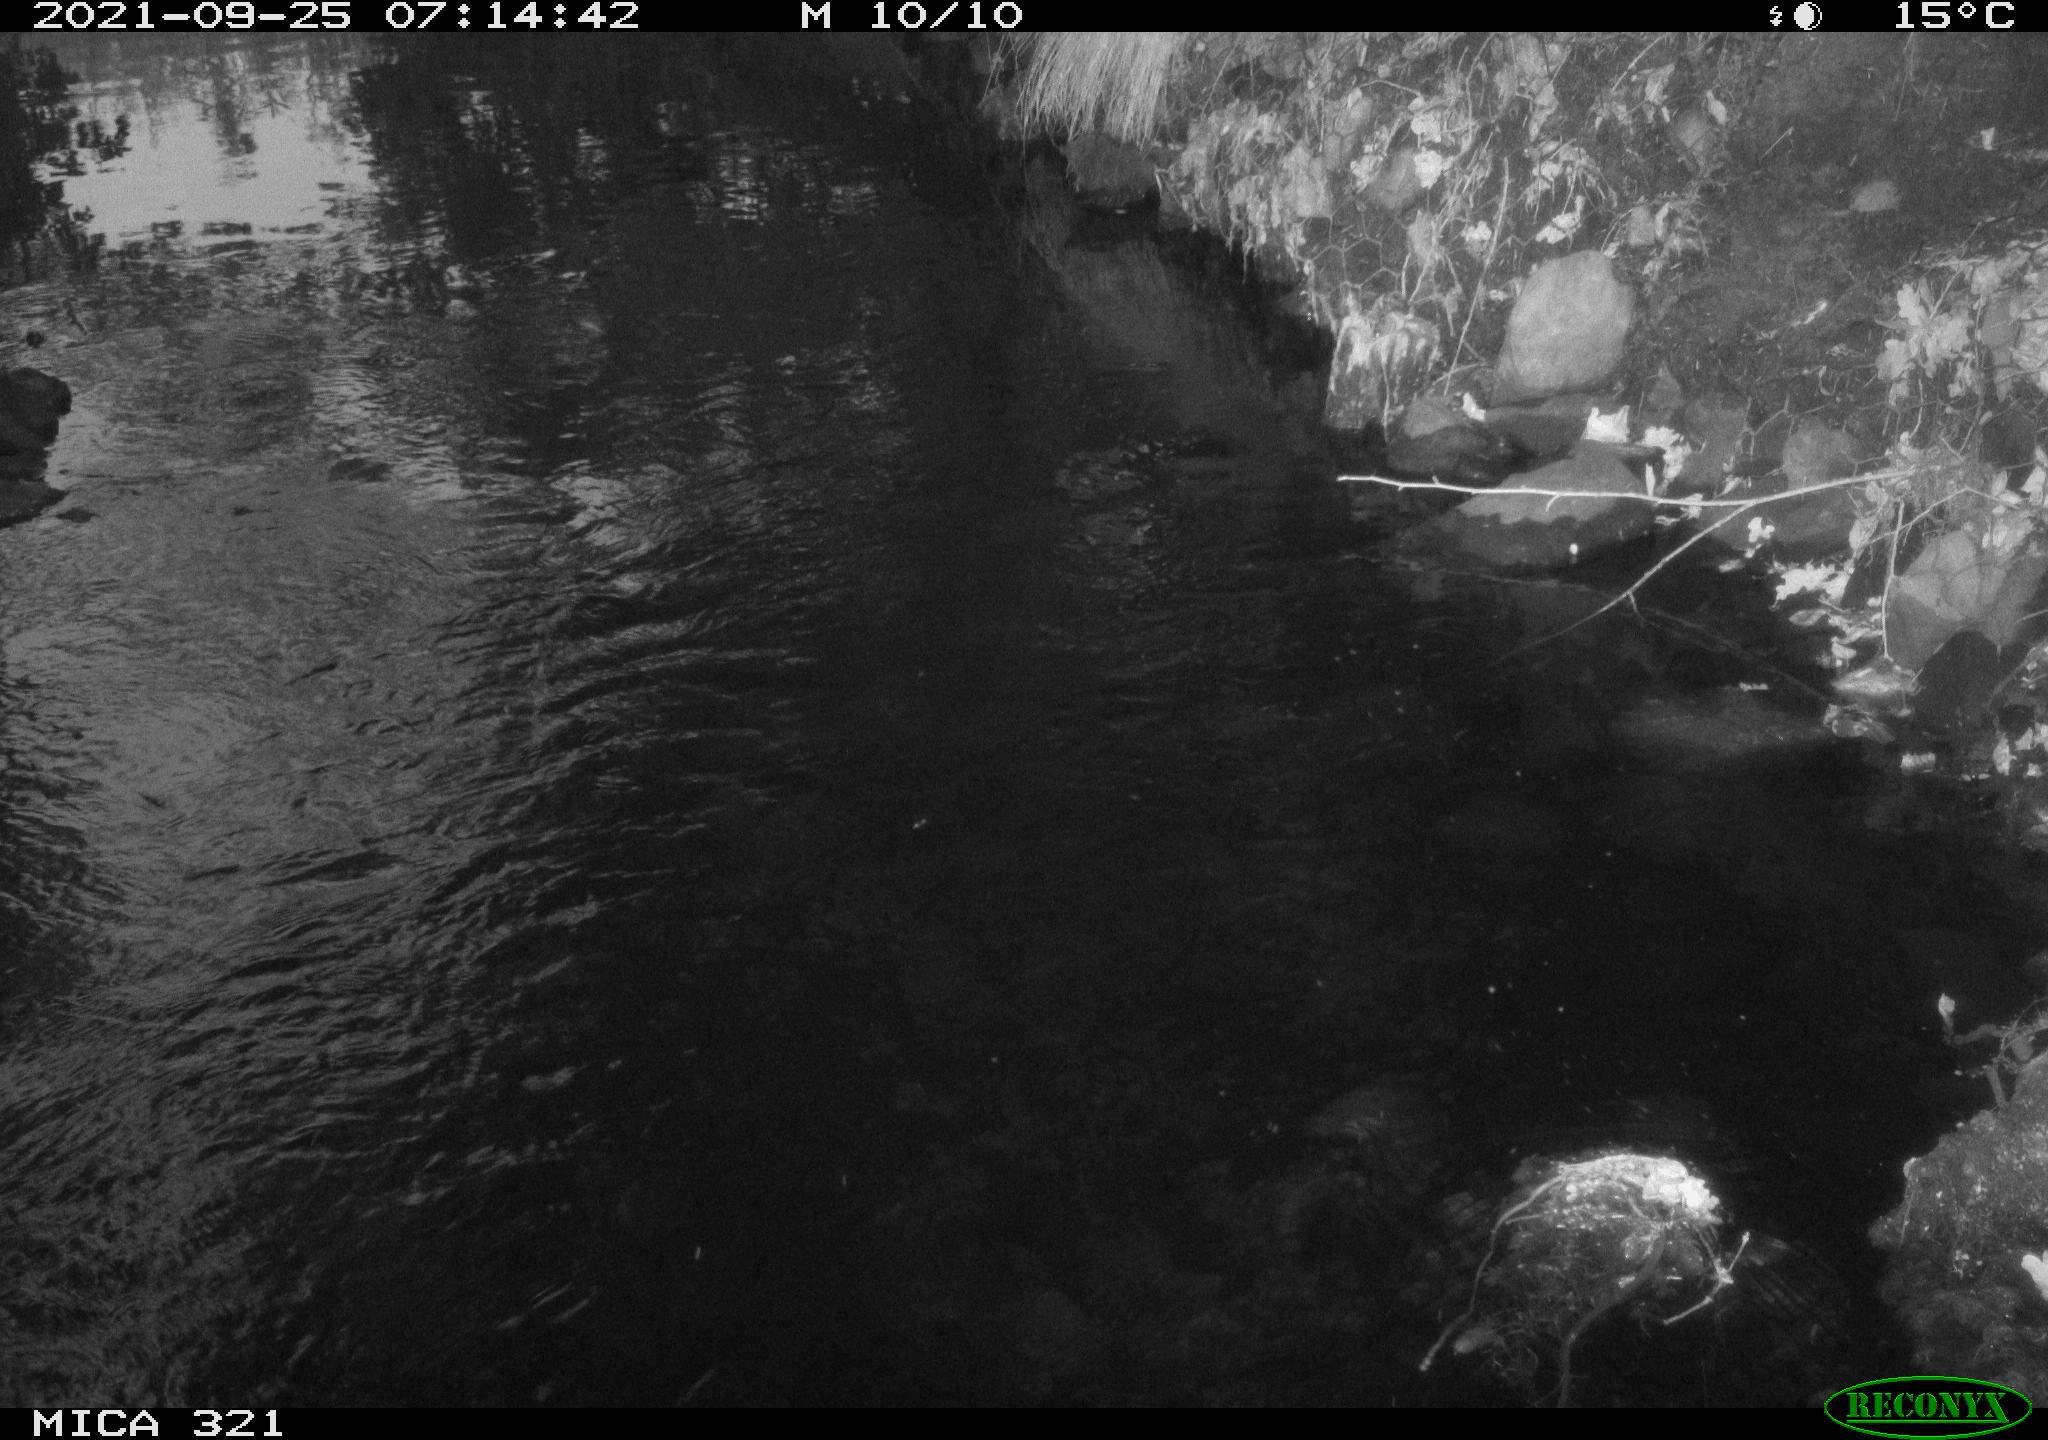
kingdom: Animalia
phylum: Chordata
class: Aves
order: Anseriformes
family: Anatidae
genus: Anas
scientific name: Anas platyrhynchos
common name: Mallard
